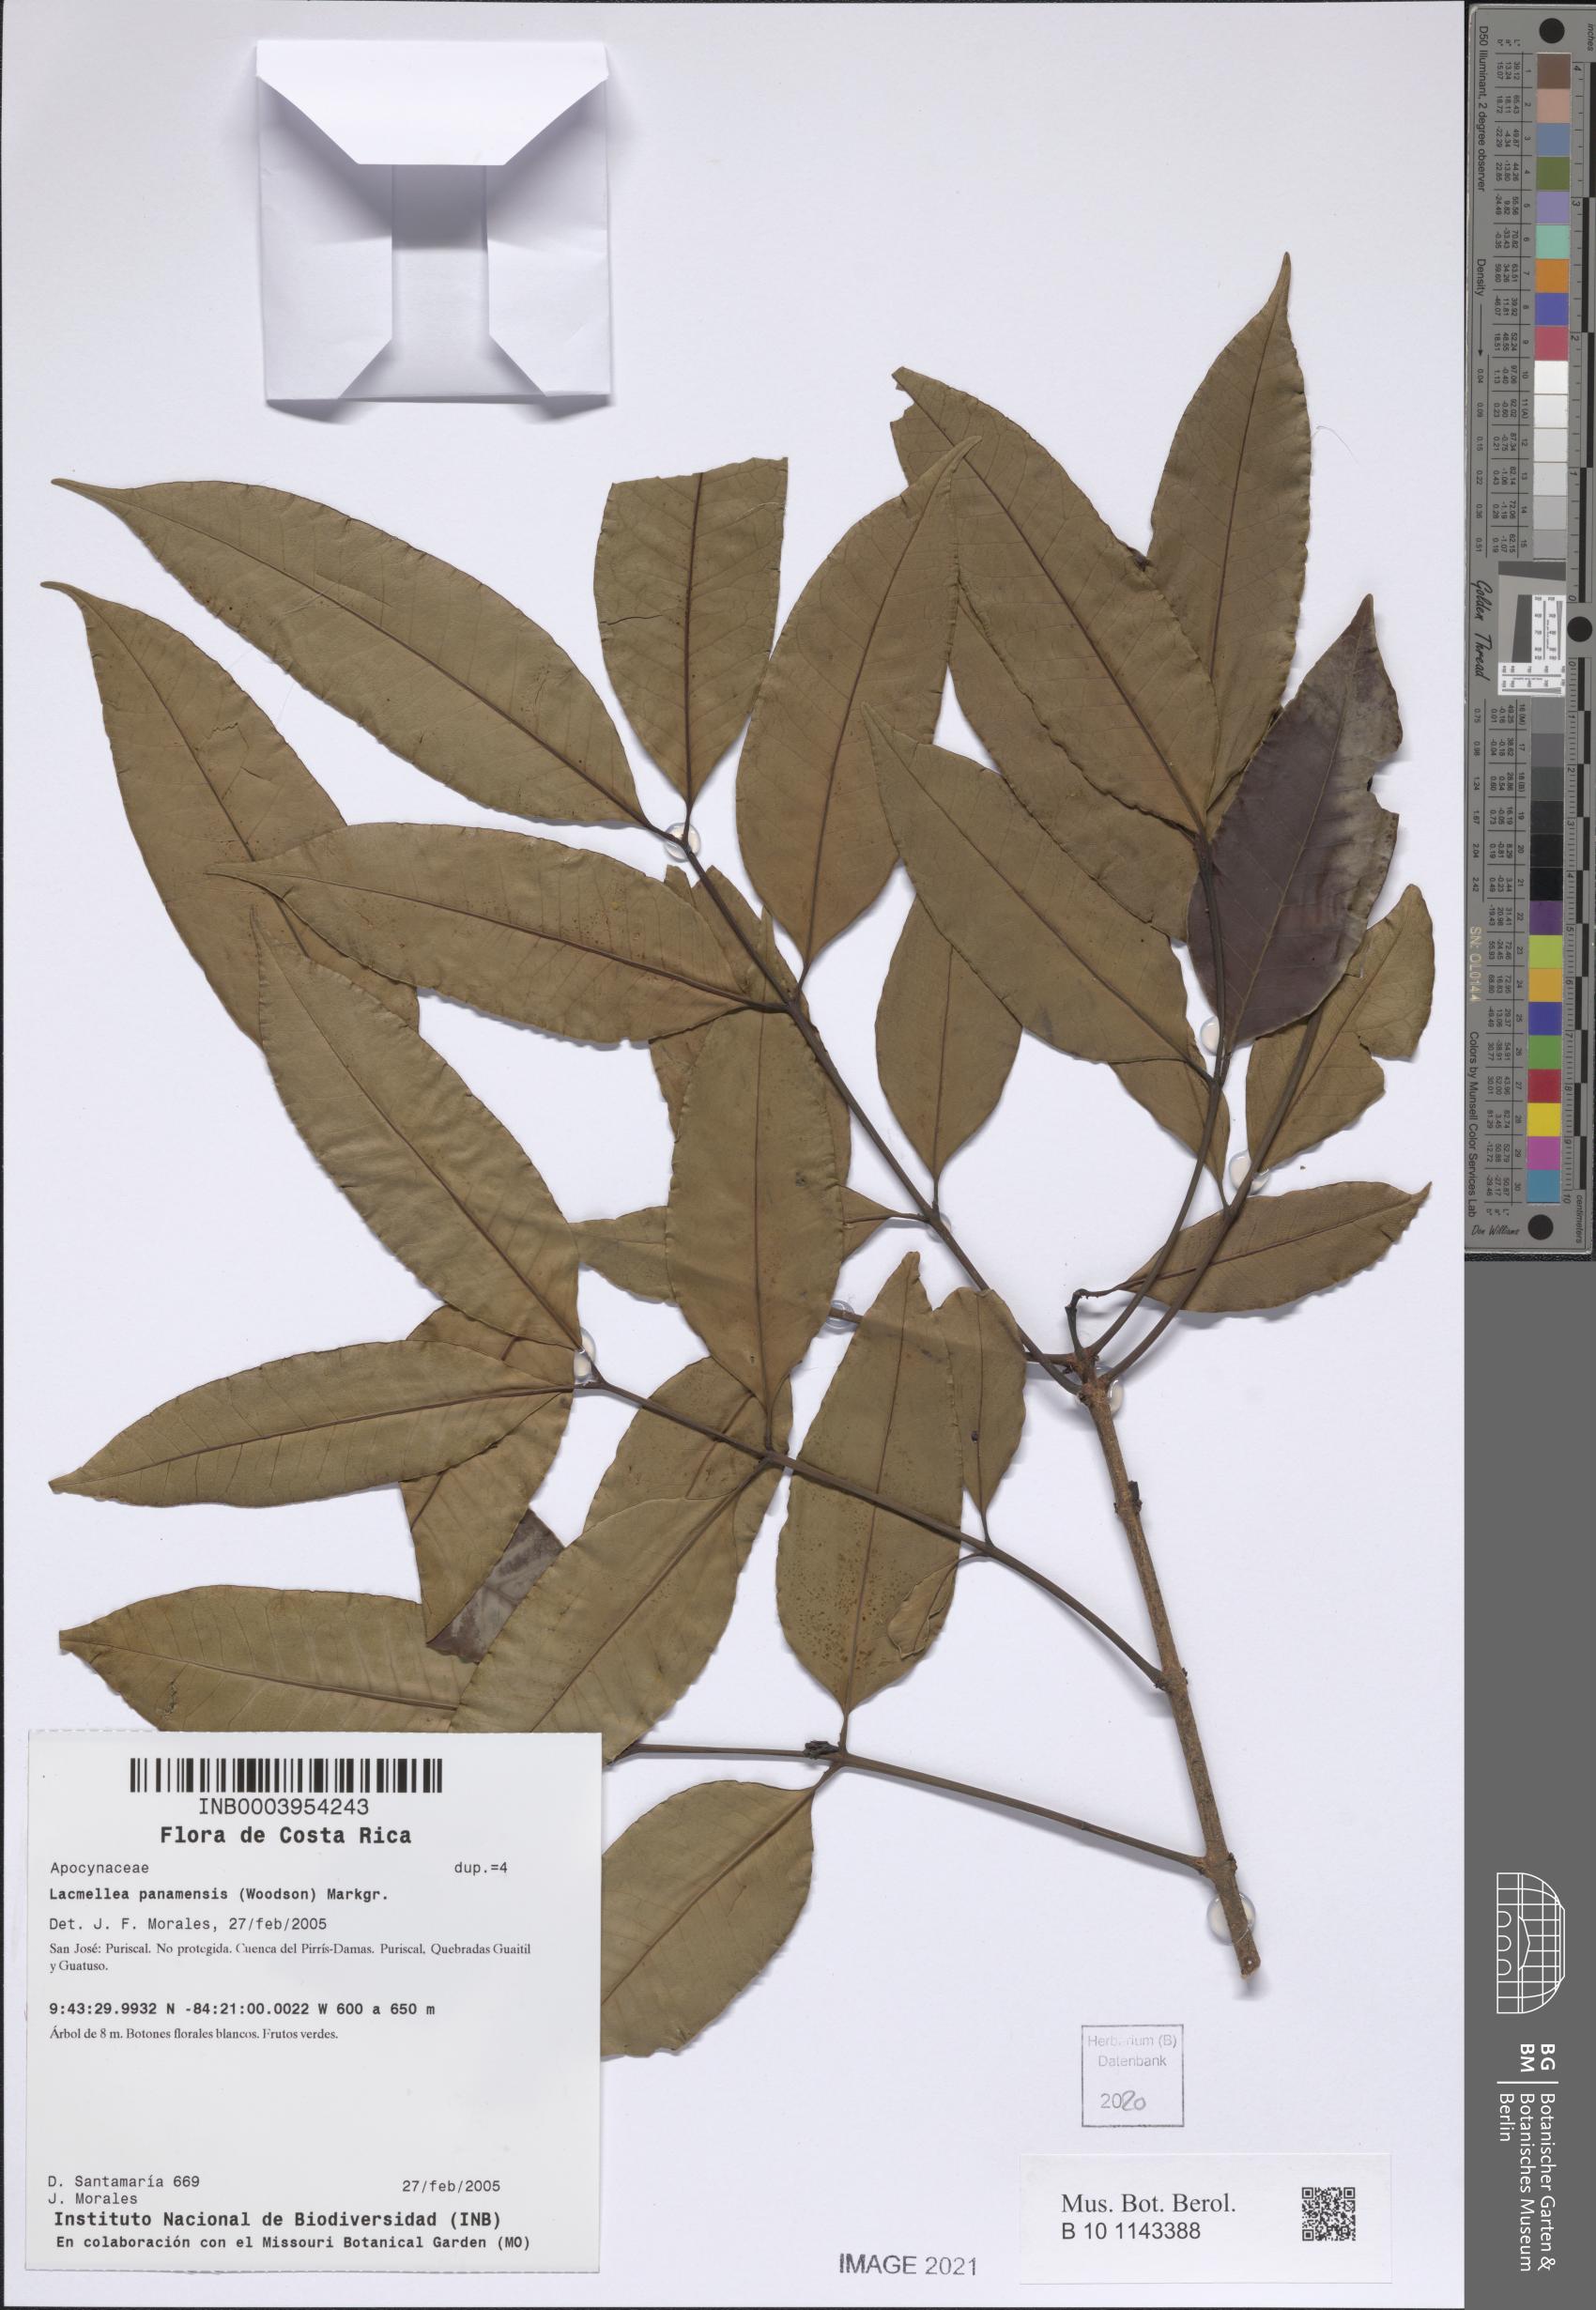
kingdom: Plantae
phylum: Tracheophyta
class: Magnoliopsida
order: Gentianales
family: Apocynaceae
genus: Lacmellea
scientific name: Lacmellea panamensis
